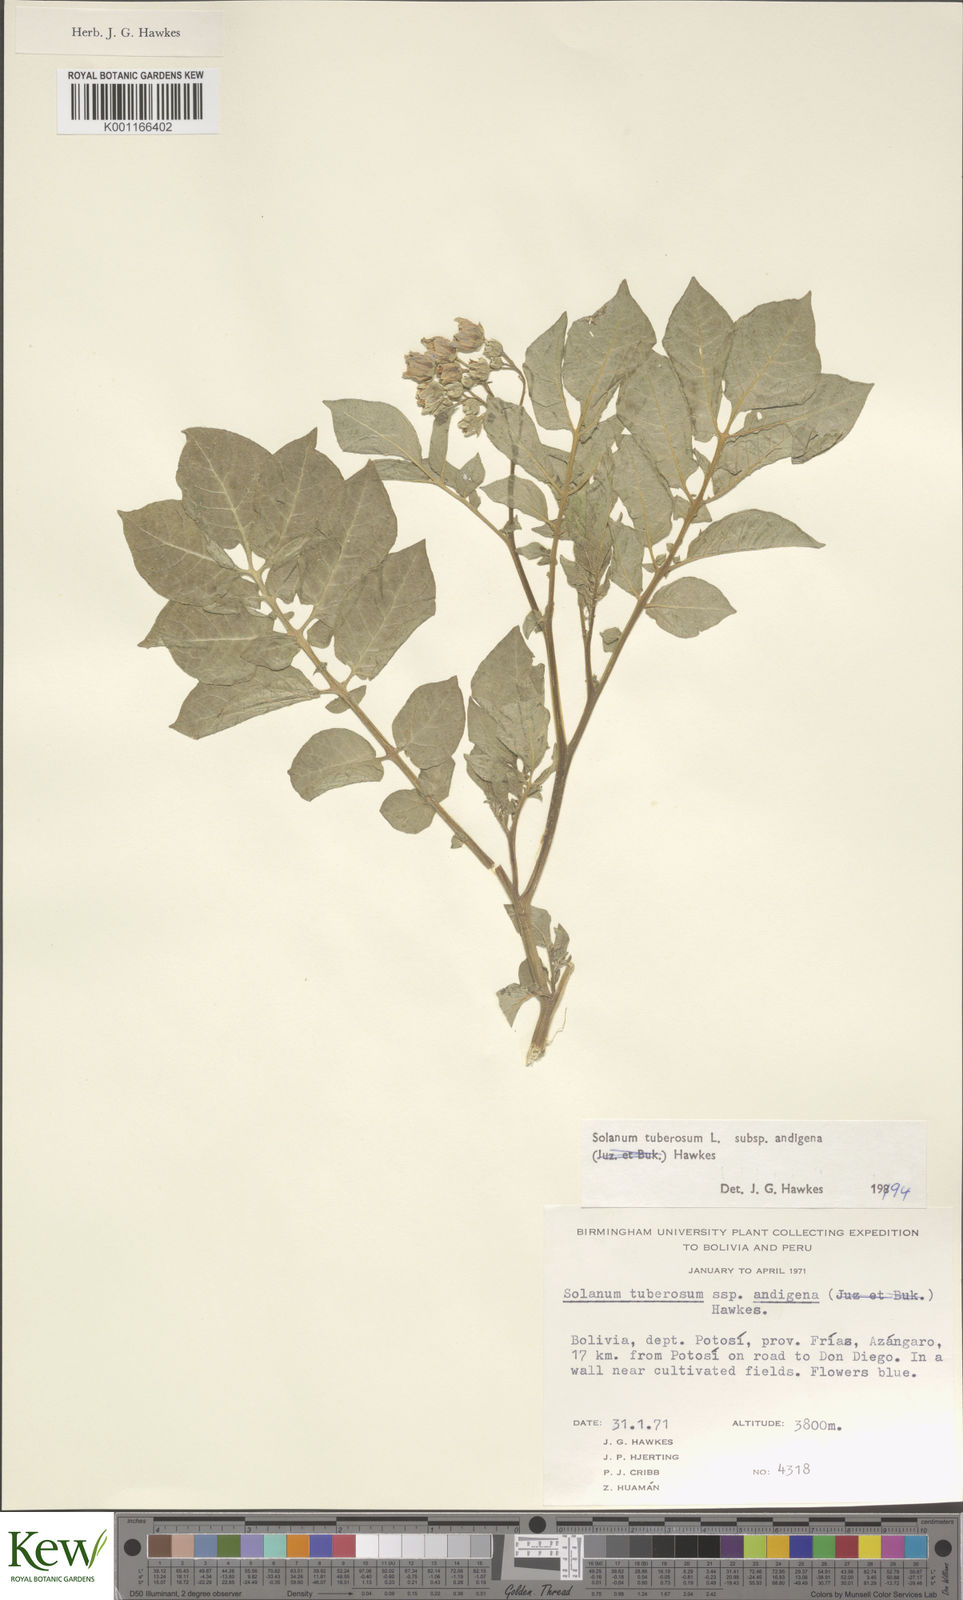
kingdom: Plantae
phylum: Tracheophyta
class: Magnoliopsida
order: Solanales
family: Solanaceae
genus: Solanum
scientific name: Solanum tuberosum
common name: Potato
